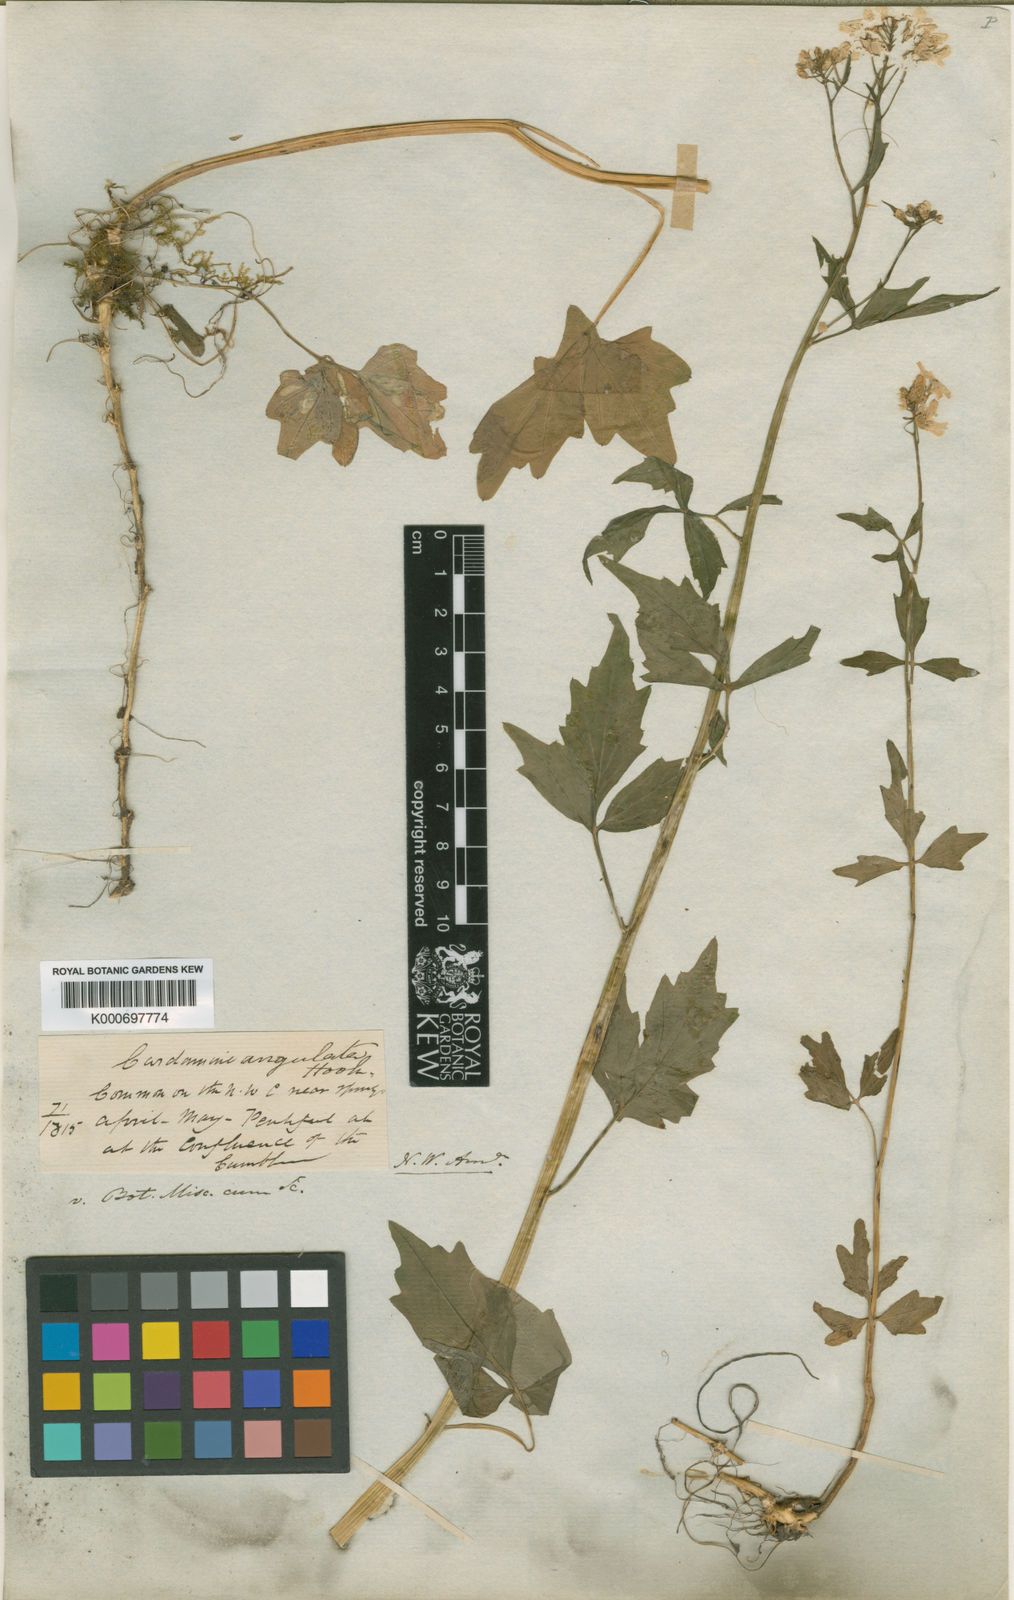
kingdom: Plantae
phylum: Tracheophyta
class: Magnoliopsida
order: Brassicales
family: Brassicaceae
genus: Cardamine
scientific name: Cardamine angulata
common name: Angled bittercress
